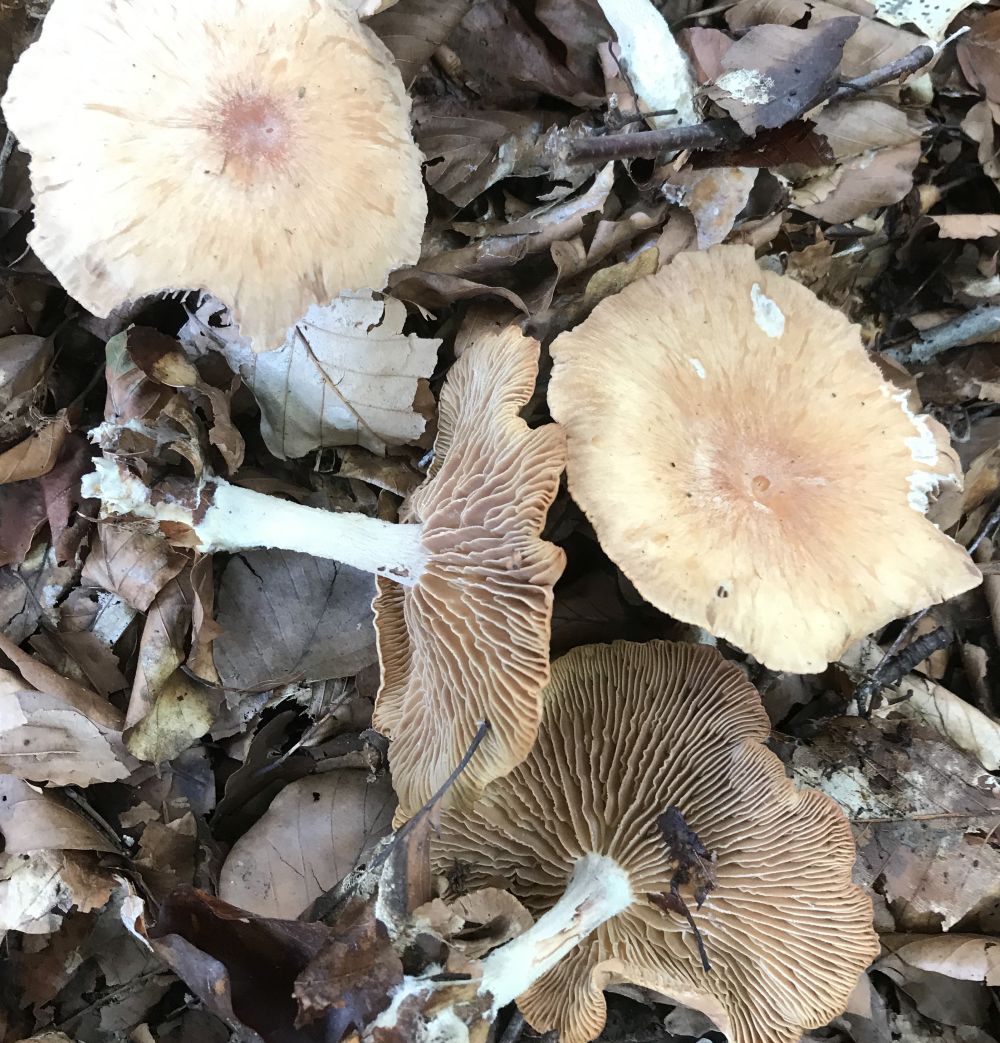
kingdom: Fungi
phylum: Basidiomycota
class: Agaricomycetes
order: Agaricales
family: Omphalotaceae
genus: Collybiopsis
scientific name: Collybiopsis peronata
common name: bestøvlet fladhat
